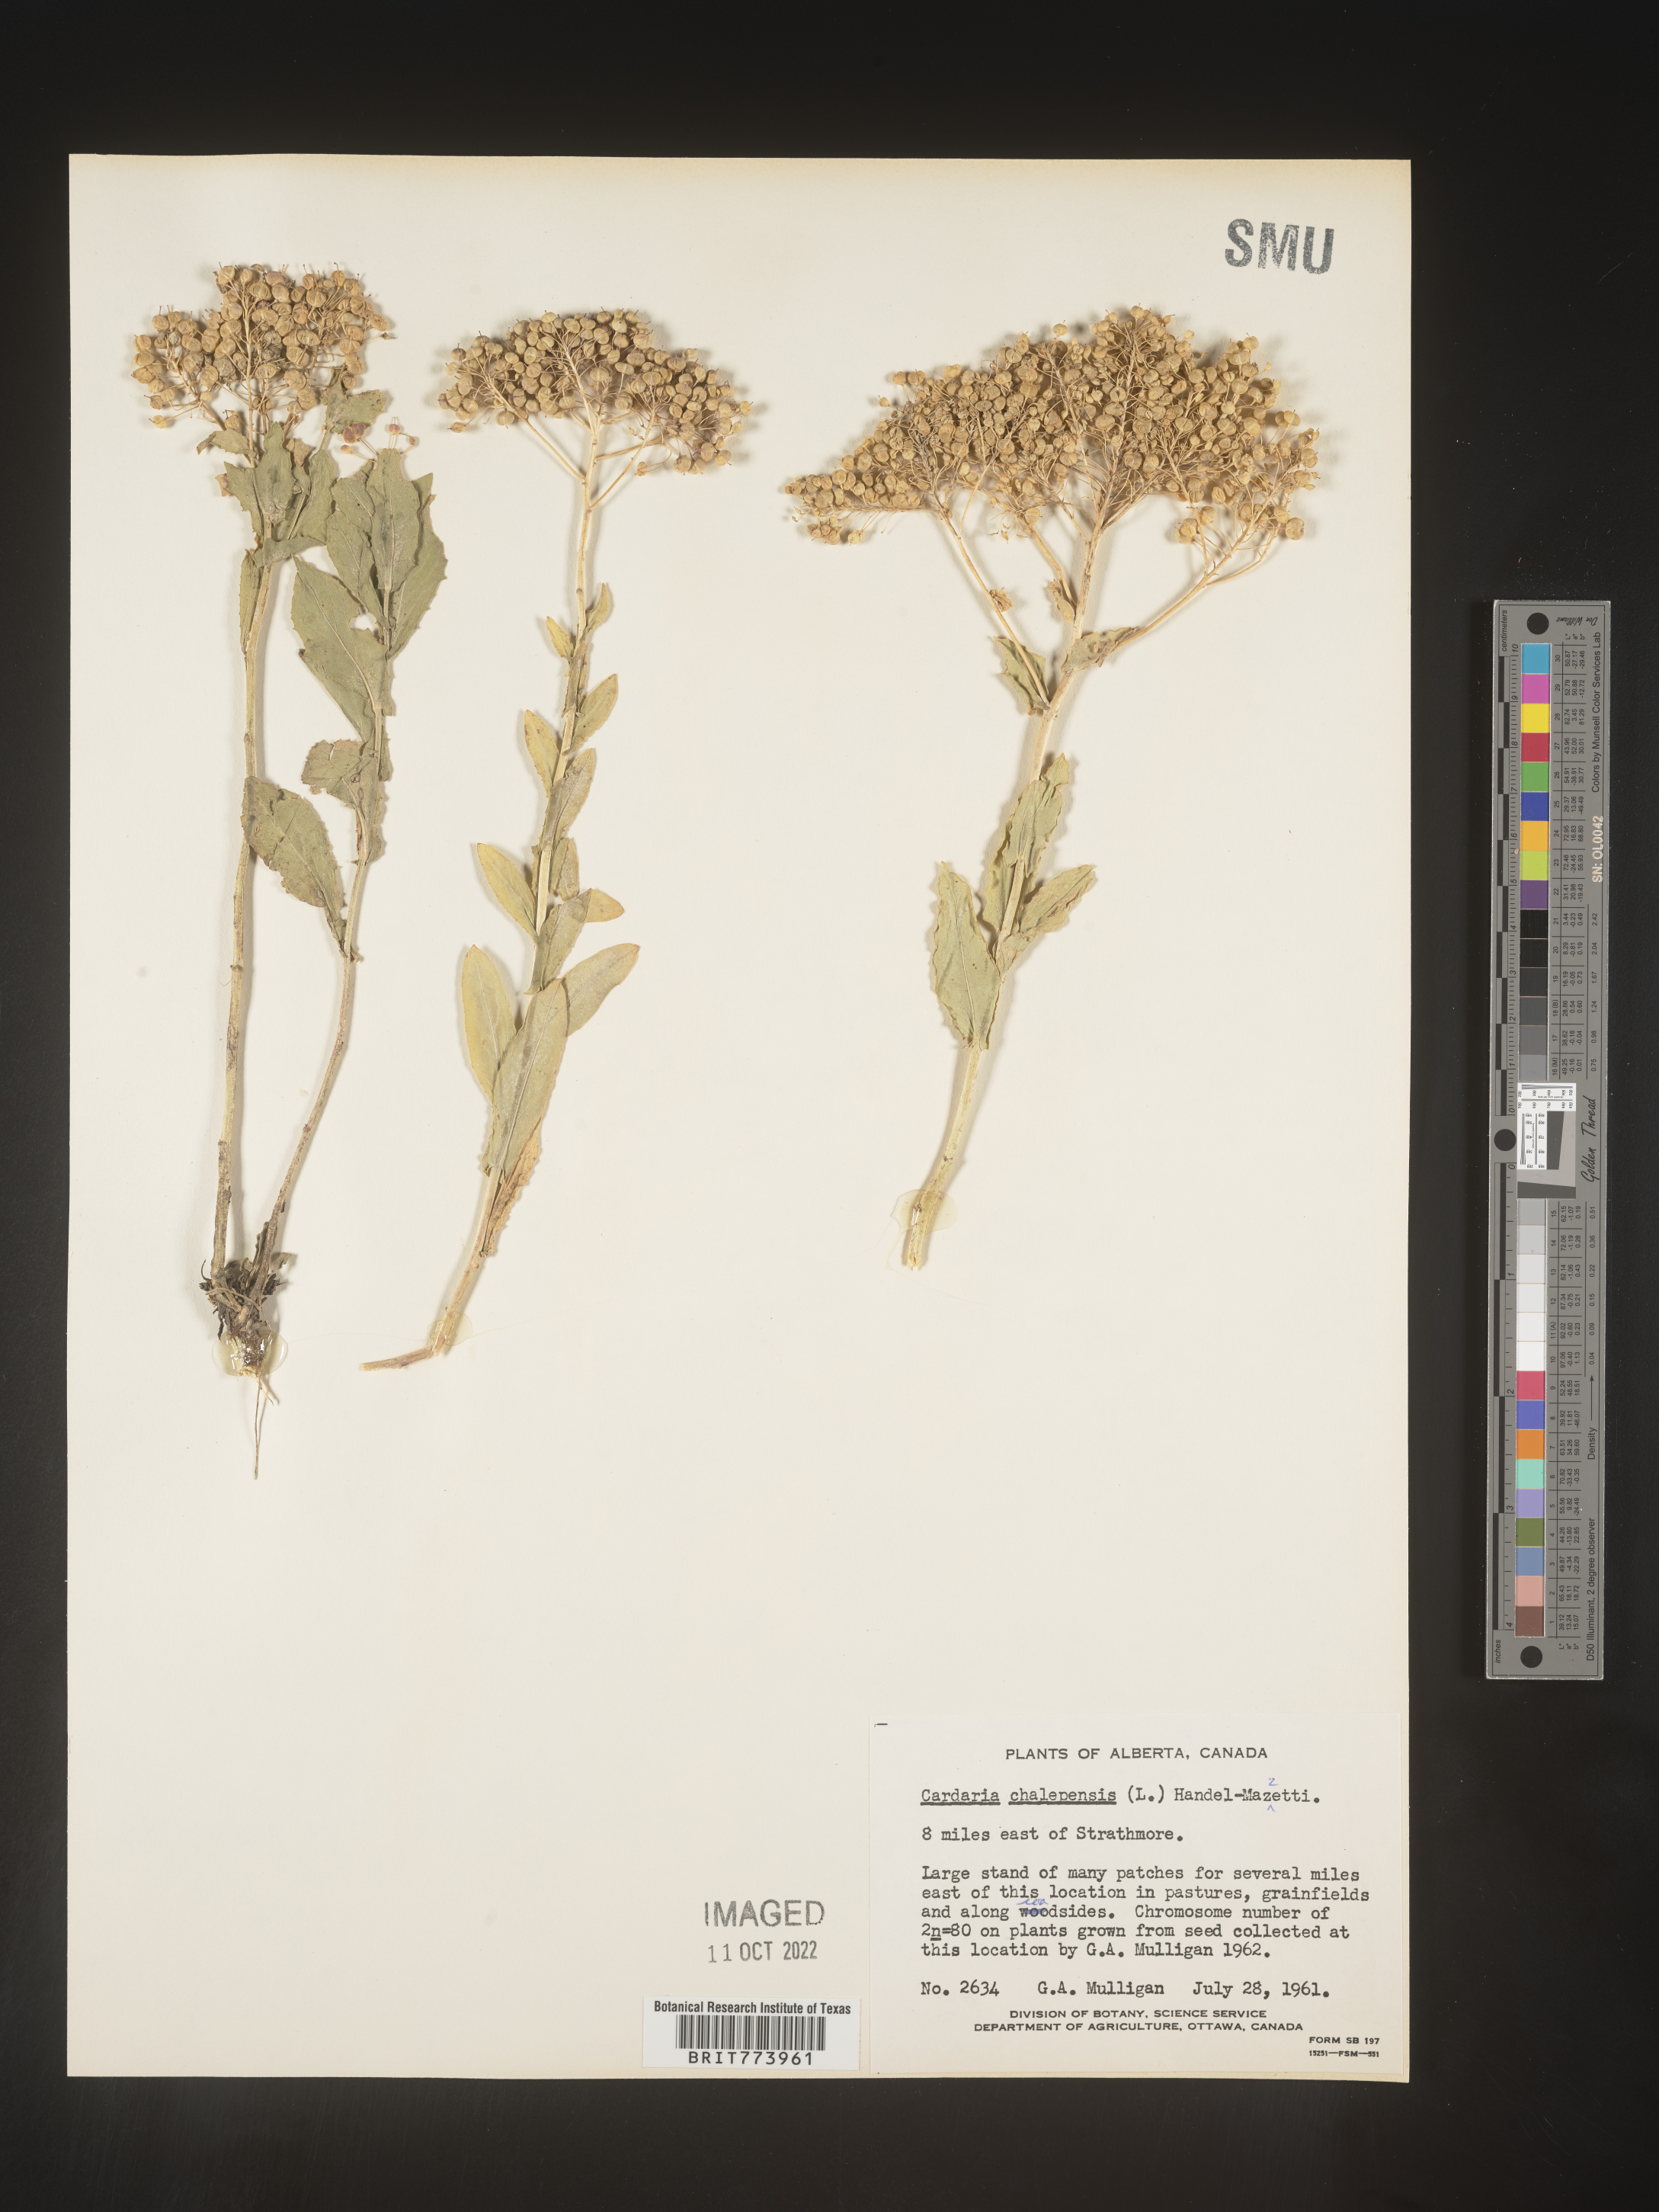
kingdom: Plantae
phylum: Tracheophyta
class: Magnoliopsida
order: Brassicales
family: Brassicaceae
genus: Lepidium
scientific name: Lepidium draba
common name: Hoary cress
